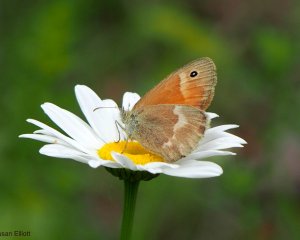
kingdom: Animalia
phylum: Arthropoda
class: Insecta
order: Lepidoptera
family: Nymphalidae
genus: Coenonympha
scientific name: Coenonympha tullia
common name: Large Heath
